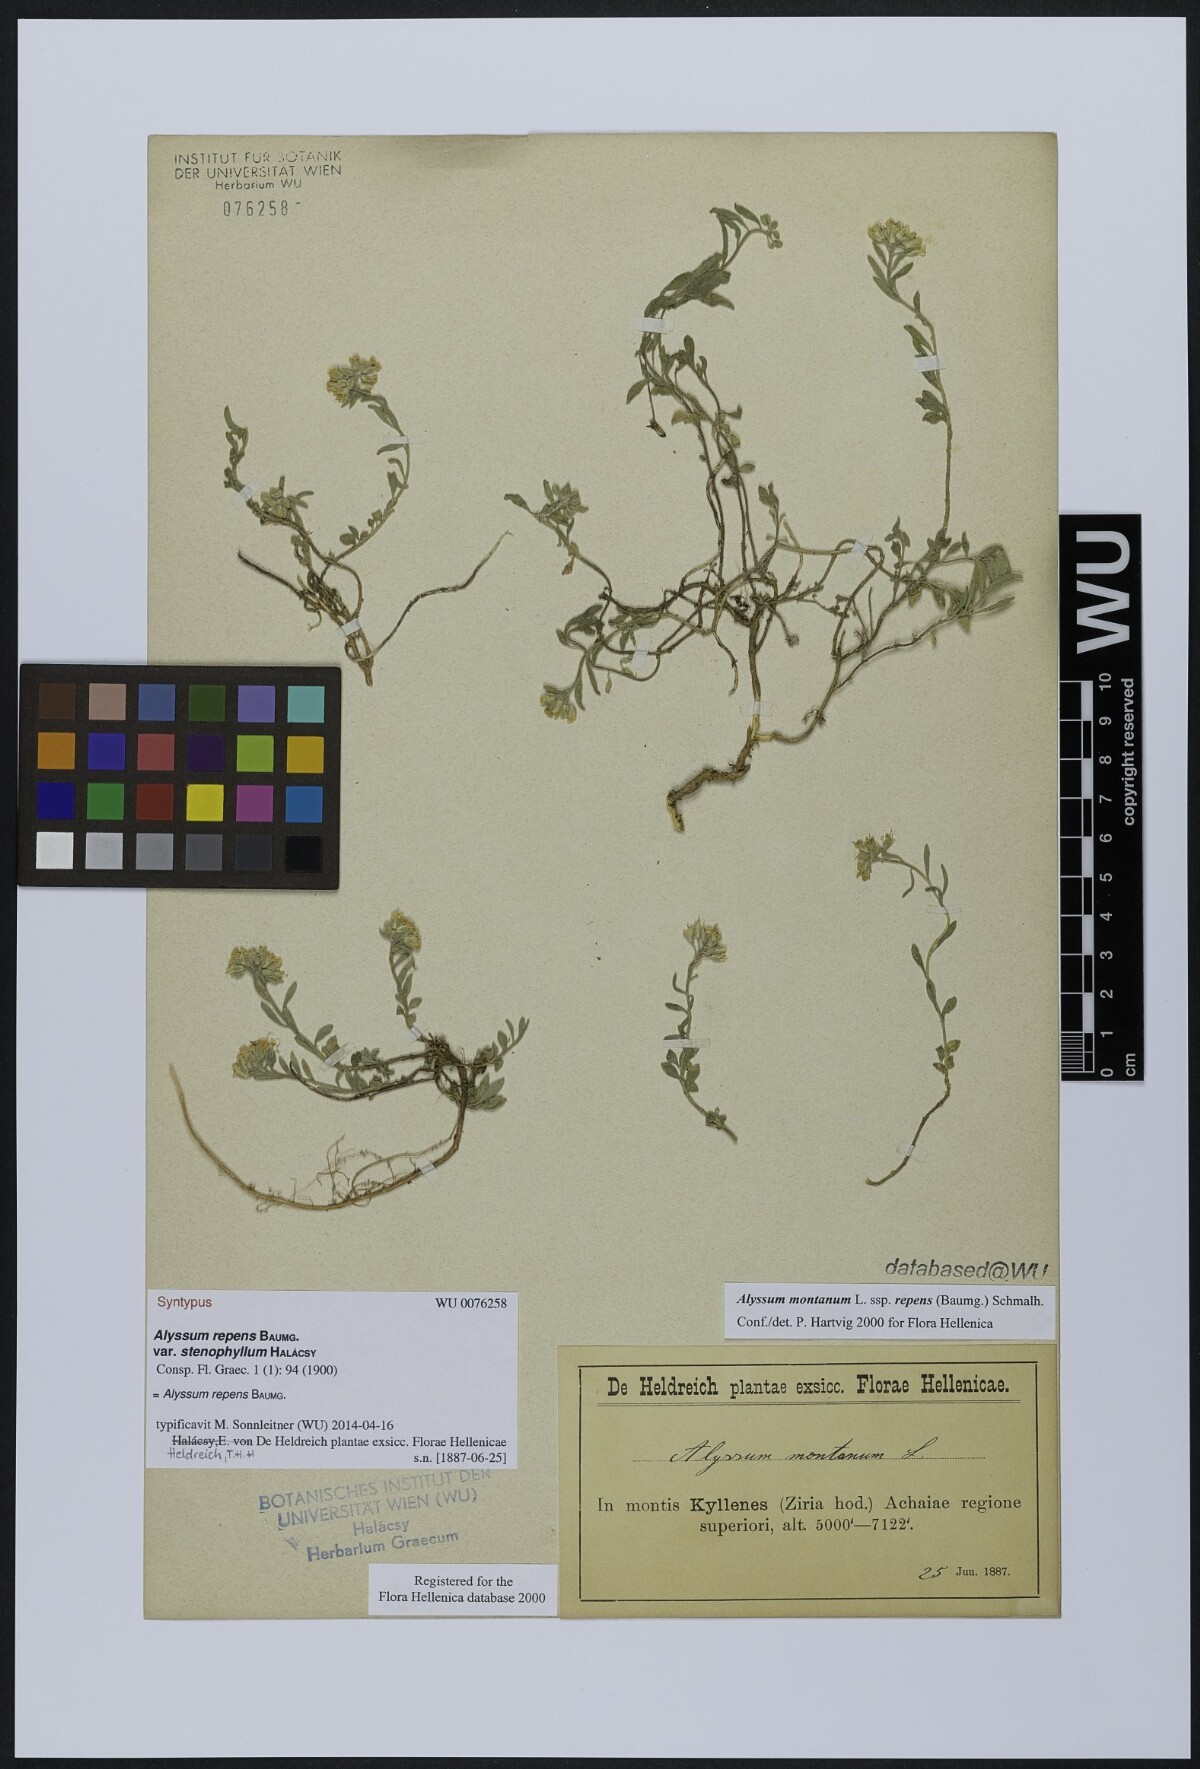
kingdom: Plantae
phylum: Tracheophyta
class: Magnoliopsida
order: Brassicales
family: Brassicaceae
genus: Alyssum
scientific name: Alyssum trichostachyum
